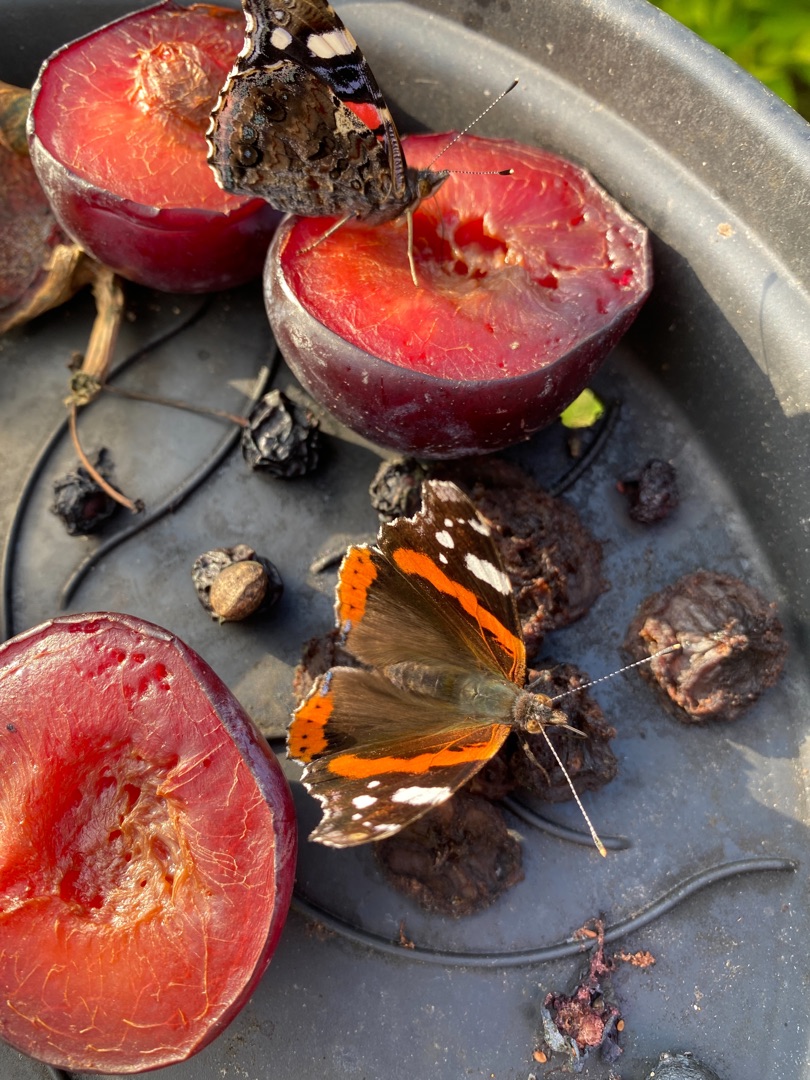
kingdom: Animalia
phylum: Arthropoda
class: Insecta
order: Lepidoptera
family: Nymphalidae
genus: Vanessa
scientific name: Vanessa atalanta
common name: Admiral
